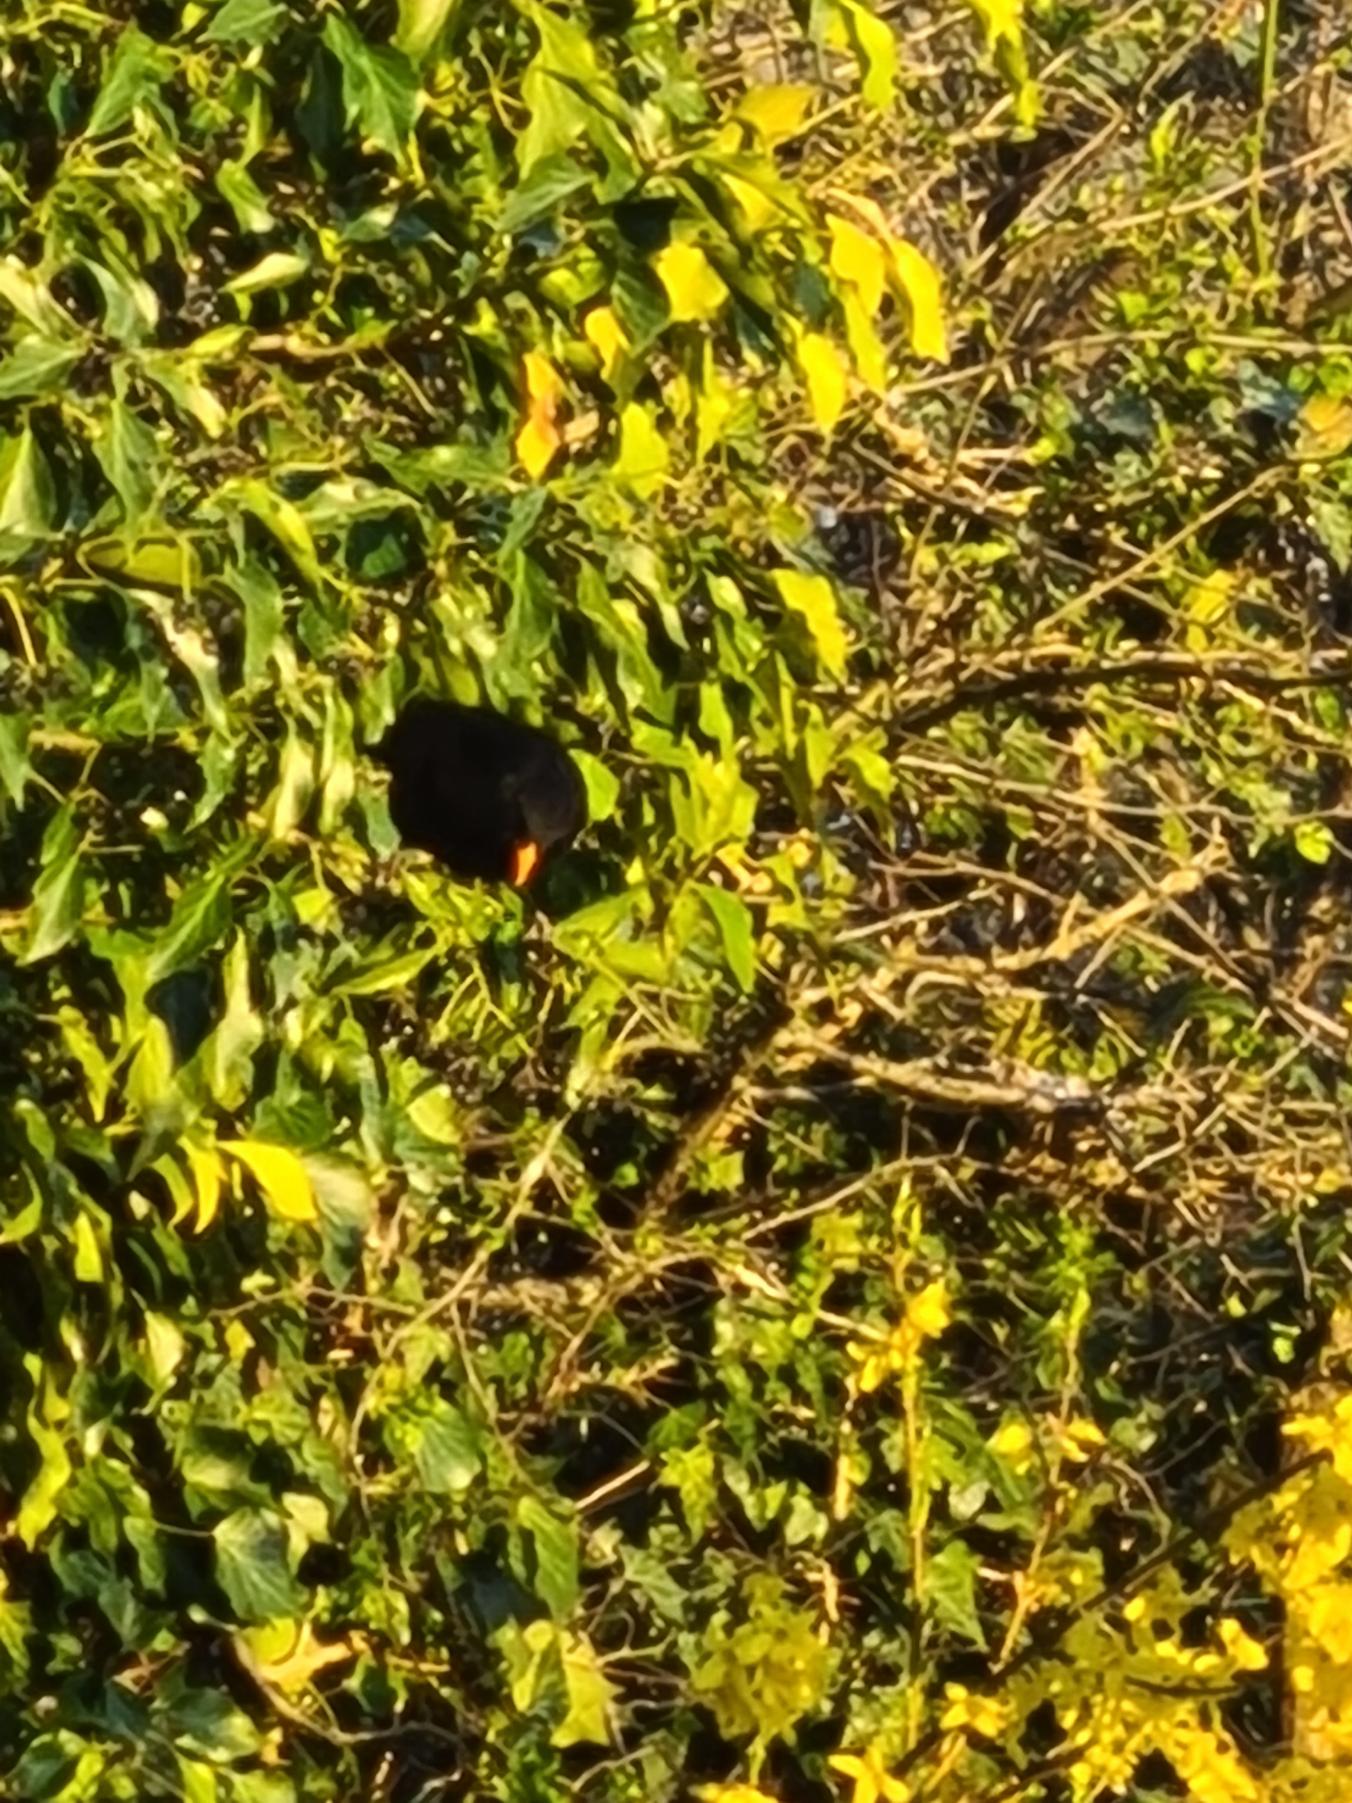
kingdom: Animalia
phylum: Chordata
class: Aves
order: Passeriformes
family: Turdidae
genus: Turdus
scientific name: Turdus merula
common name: Solsort
